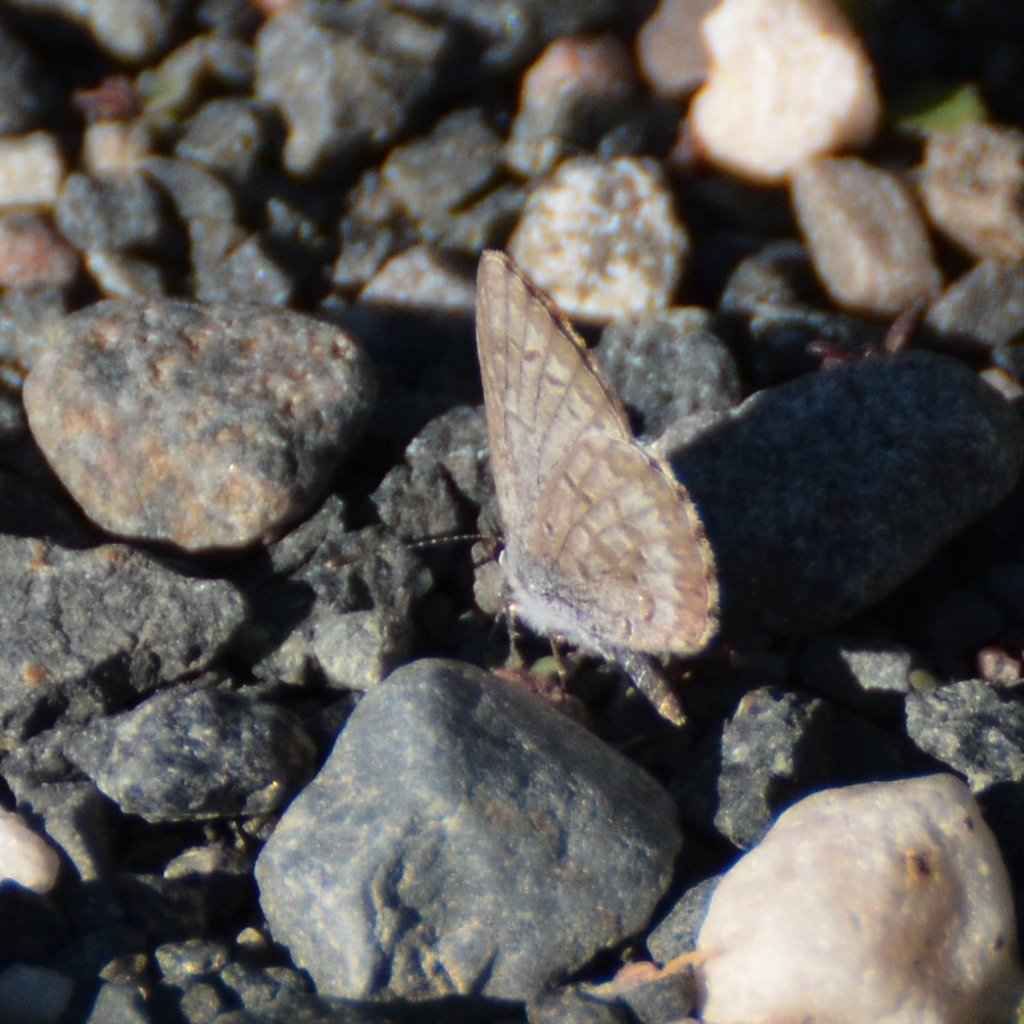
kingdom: Animalia
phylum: Arthropoda
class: Insecta
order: Lepidoptera
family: Lycaenidae
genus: Celastrina
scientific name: Celastrina lucia
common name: Northern Spring Azure
